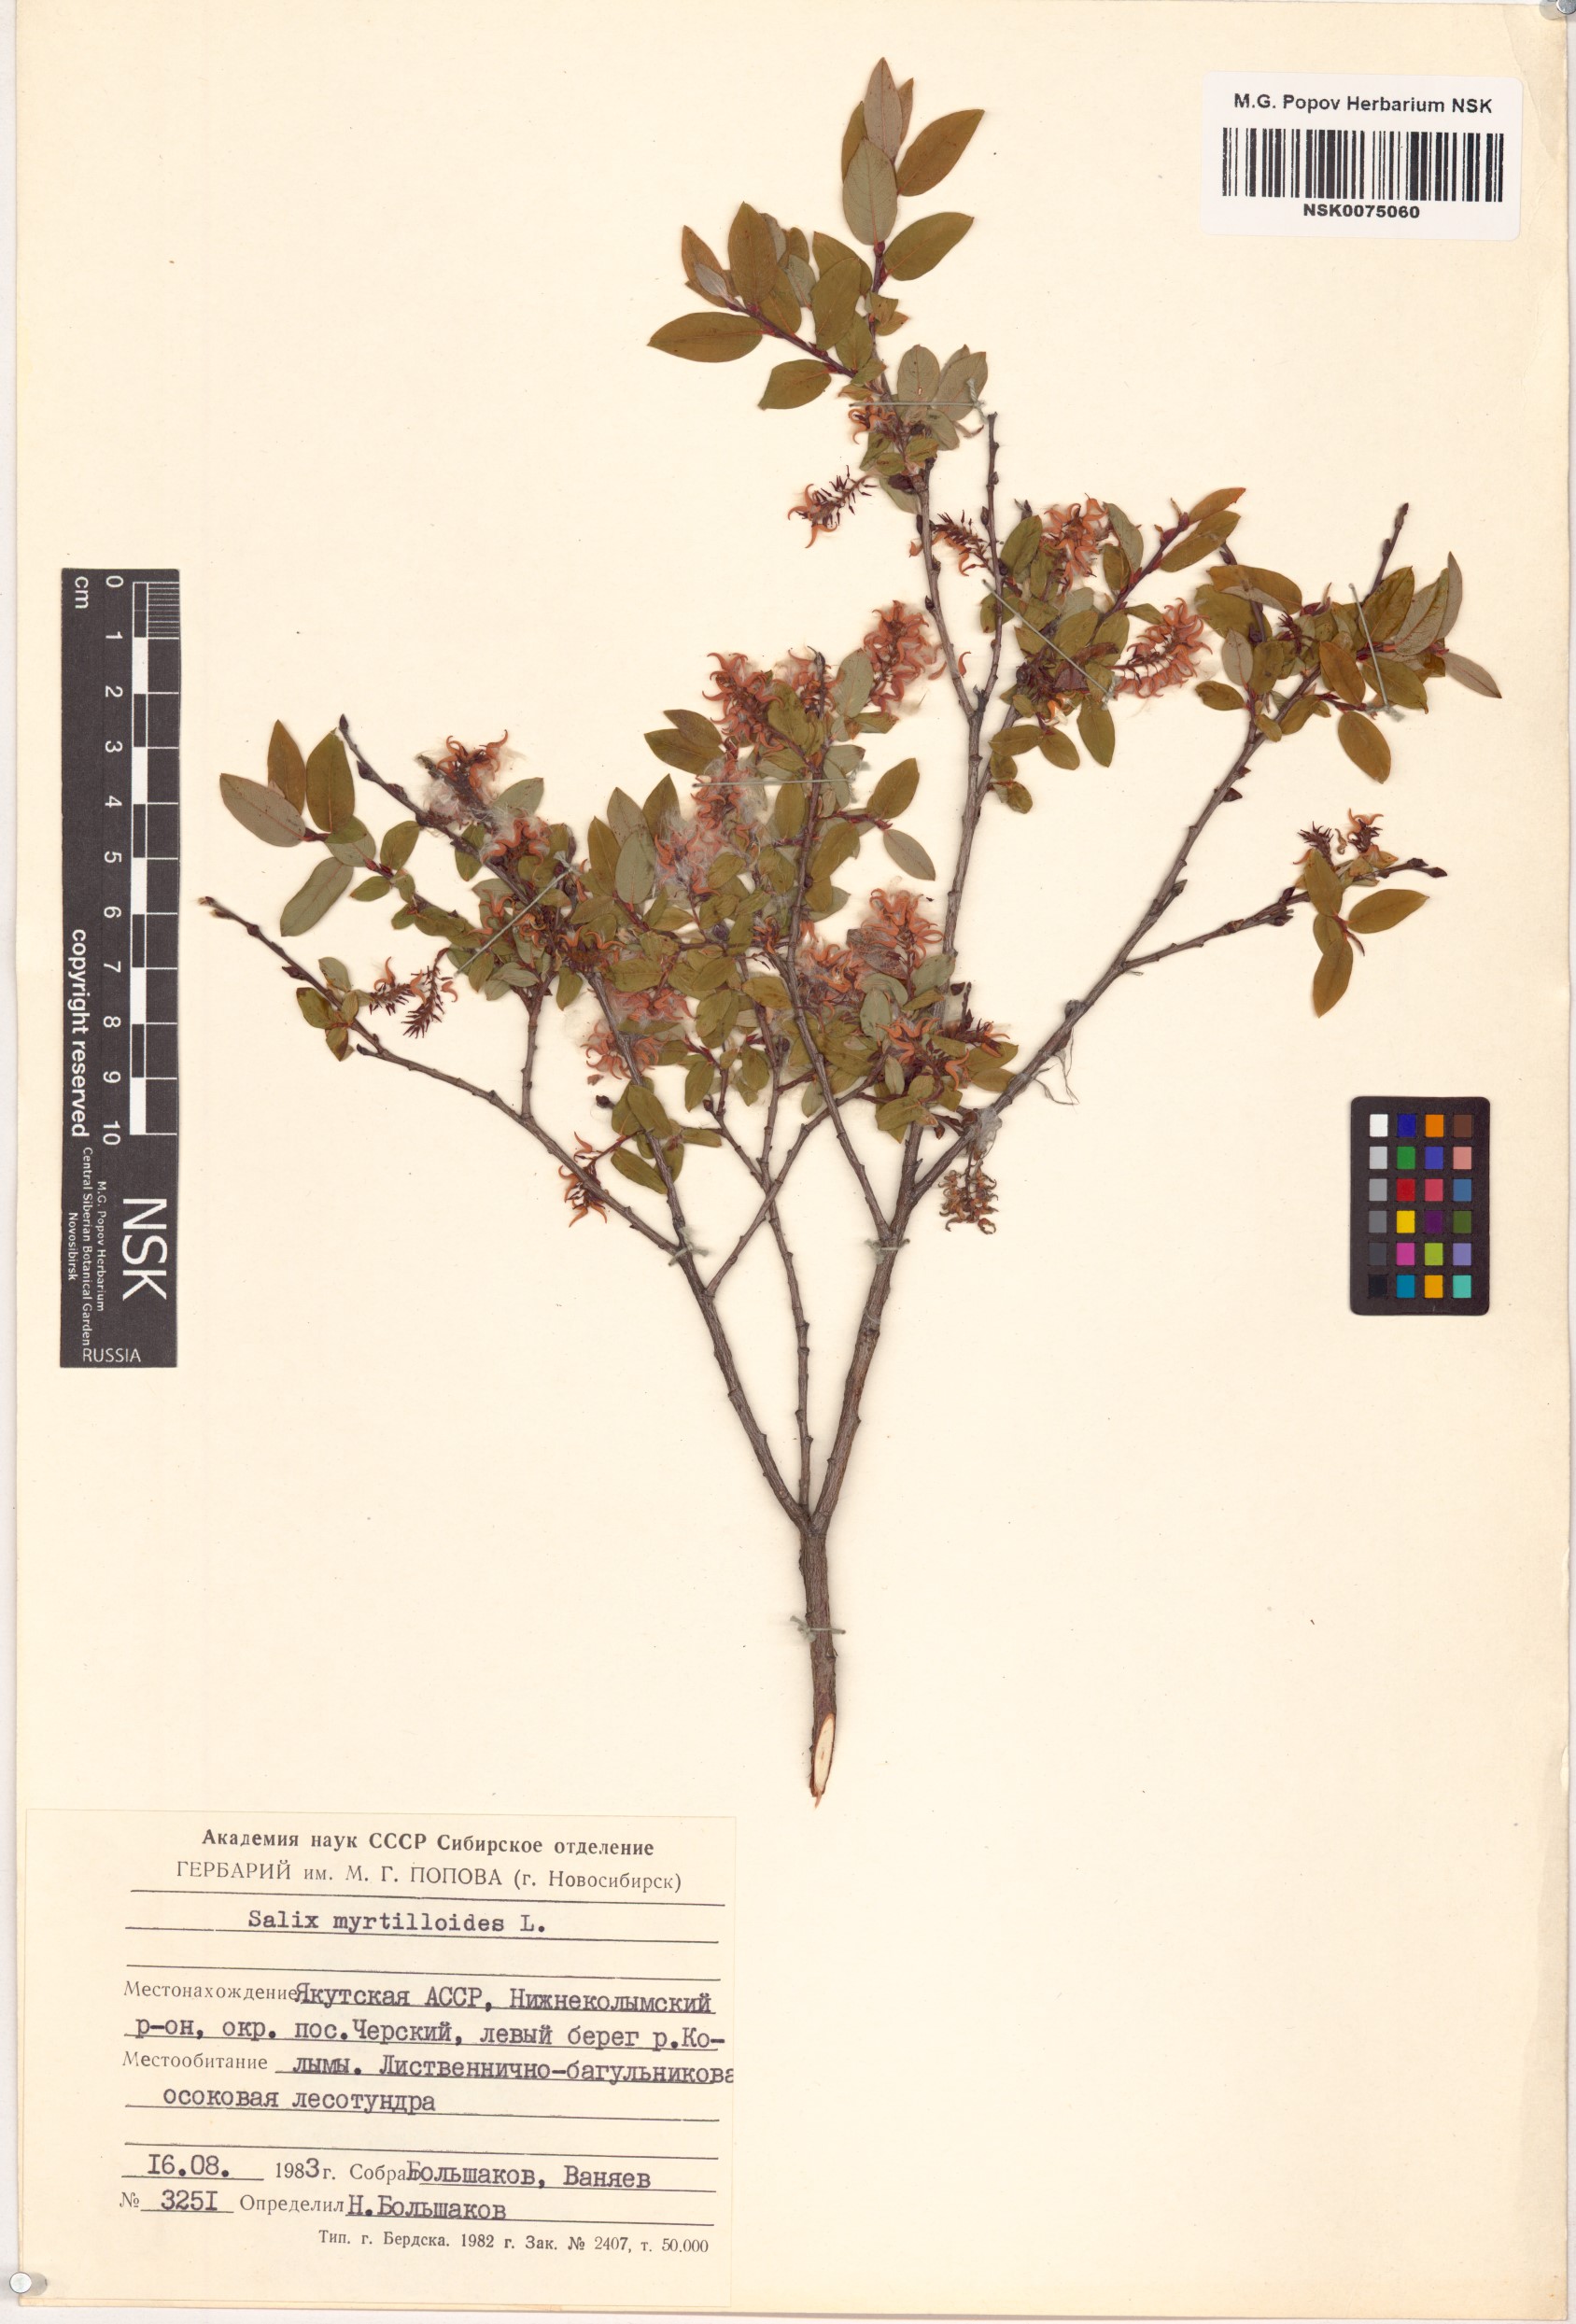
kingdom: Plantae
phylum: Tracheophyta
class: Magnoliopsida
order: Malpighiales
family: Salicaceae
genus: Salix
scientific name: Salix myrtilloides
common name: Myrtle-leaved willow
